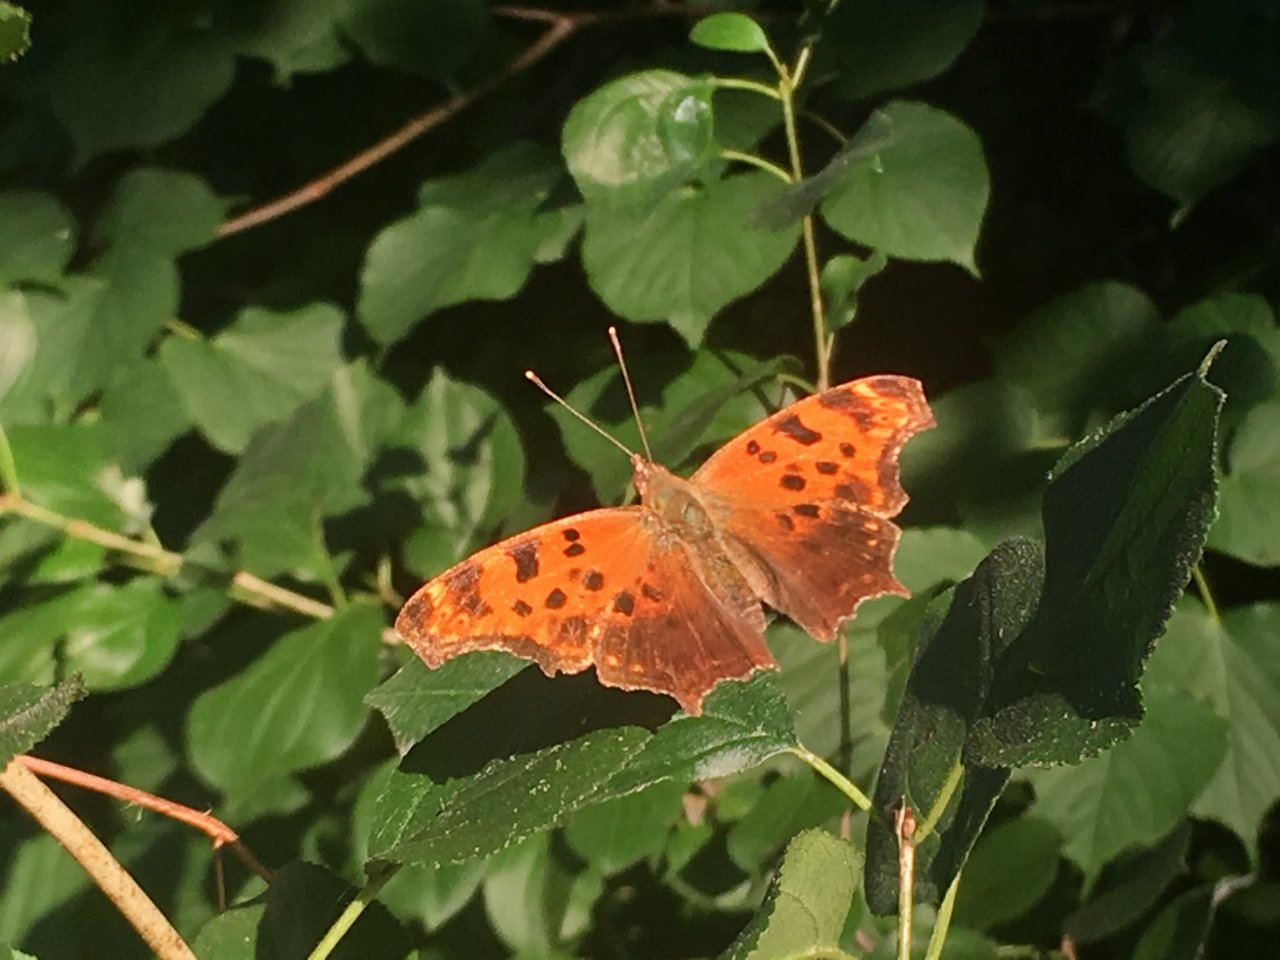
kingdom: Animalia
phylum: Arthropoda
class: Insecta
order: Lepidoptera
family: Nymphalidae
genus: Polygonia
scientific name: Polygonia comma
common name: Eastern Comma
